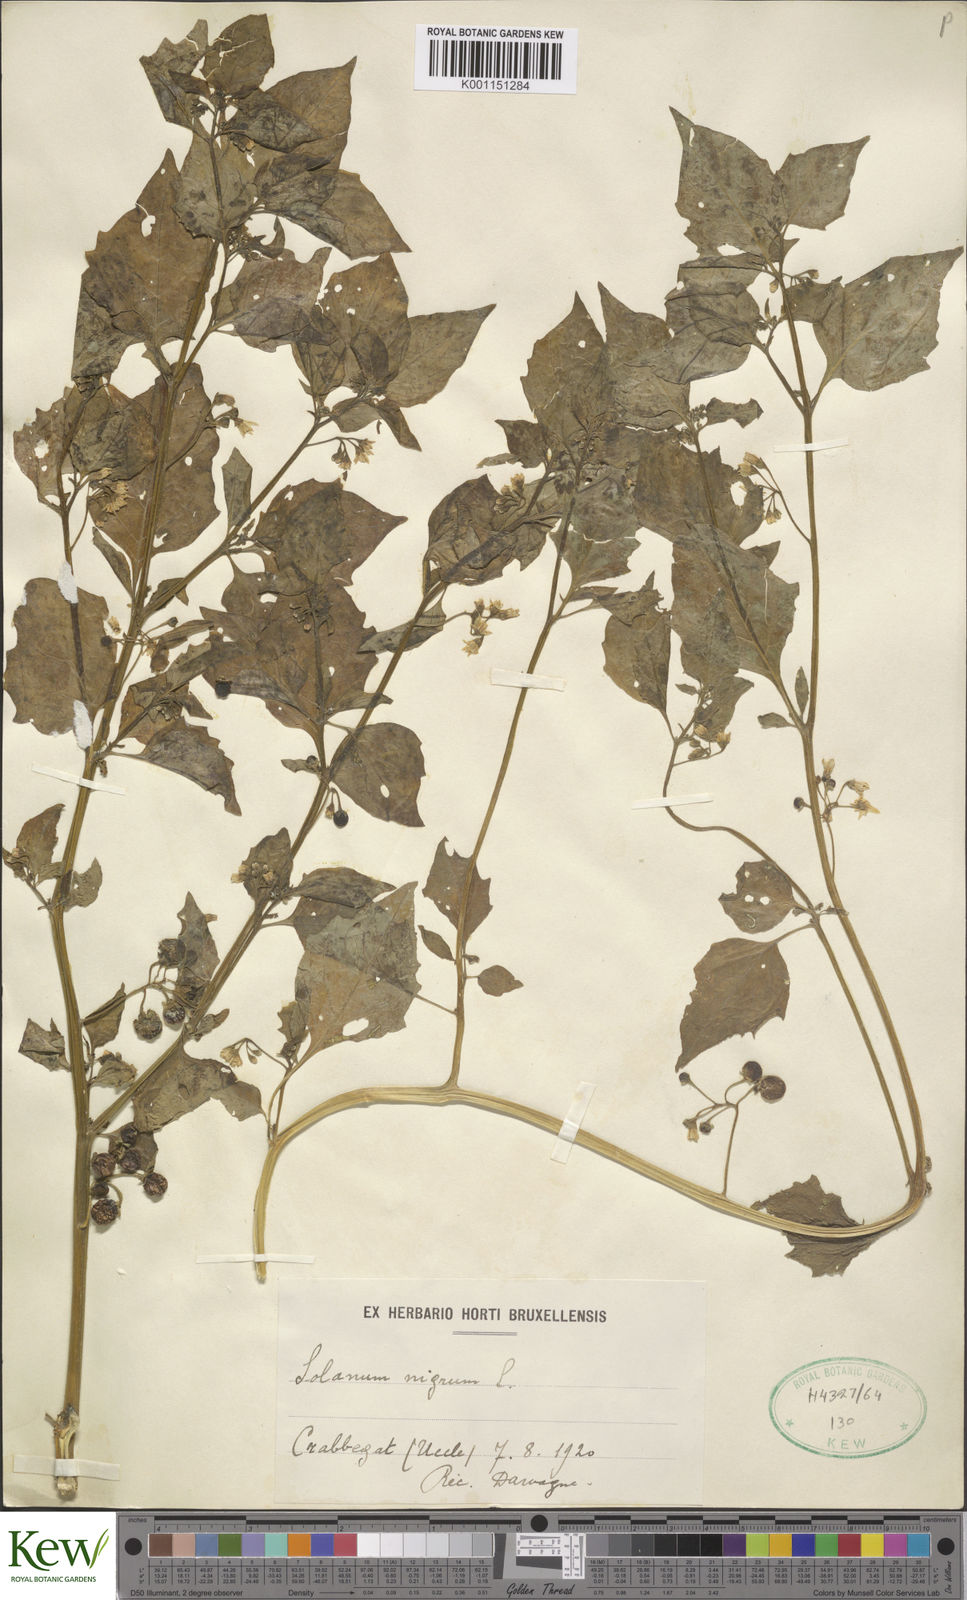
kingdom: Plantae
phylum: Tracheophyta
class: Magnoliopsida
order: Solanales
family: Solanaceae
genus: Solanum
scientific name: Solanum nigrum
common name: Black nightshade
